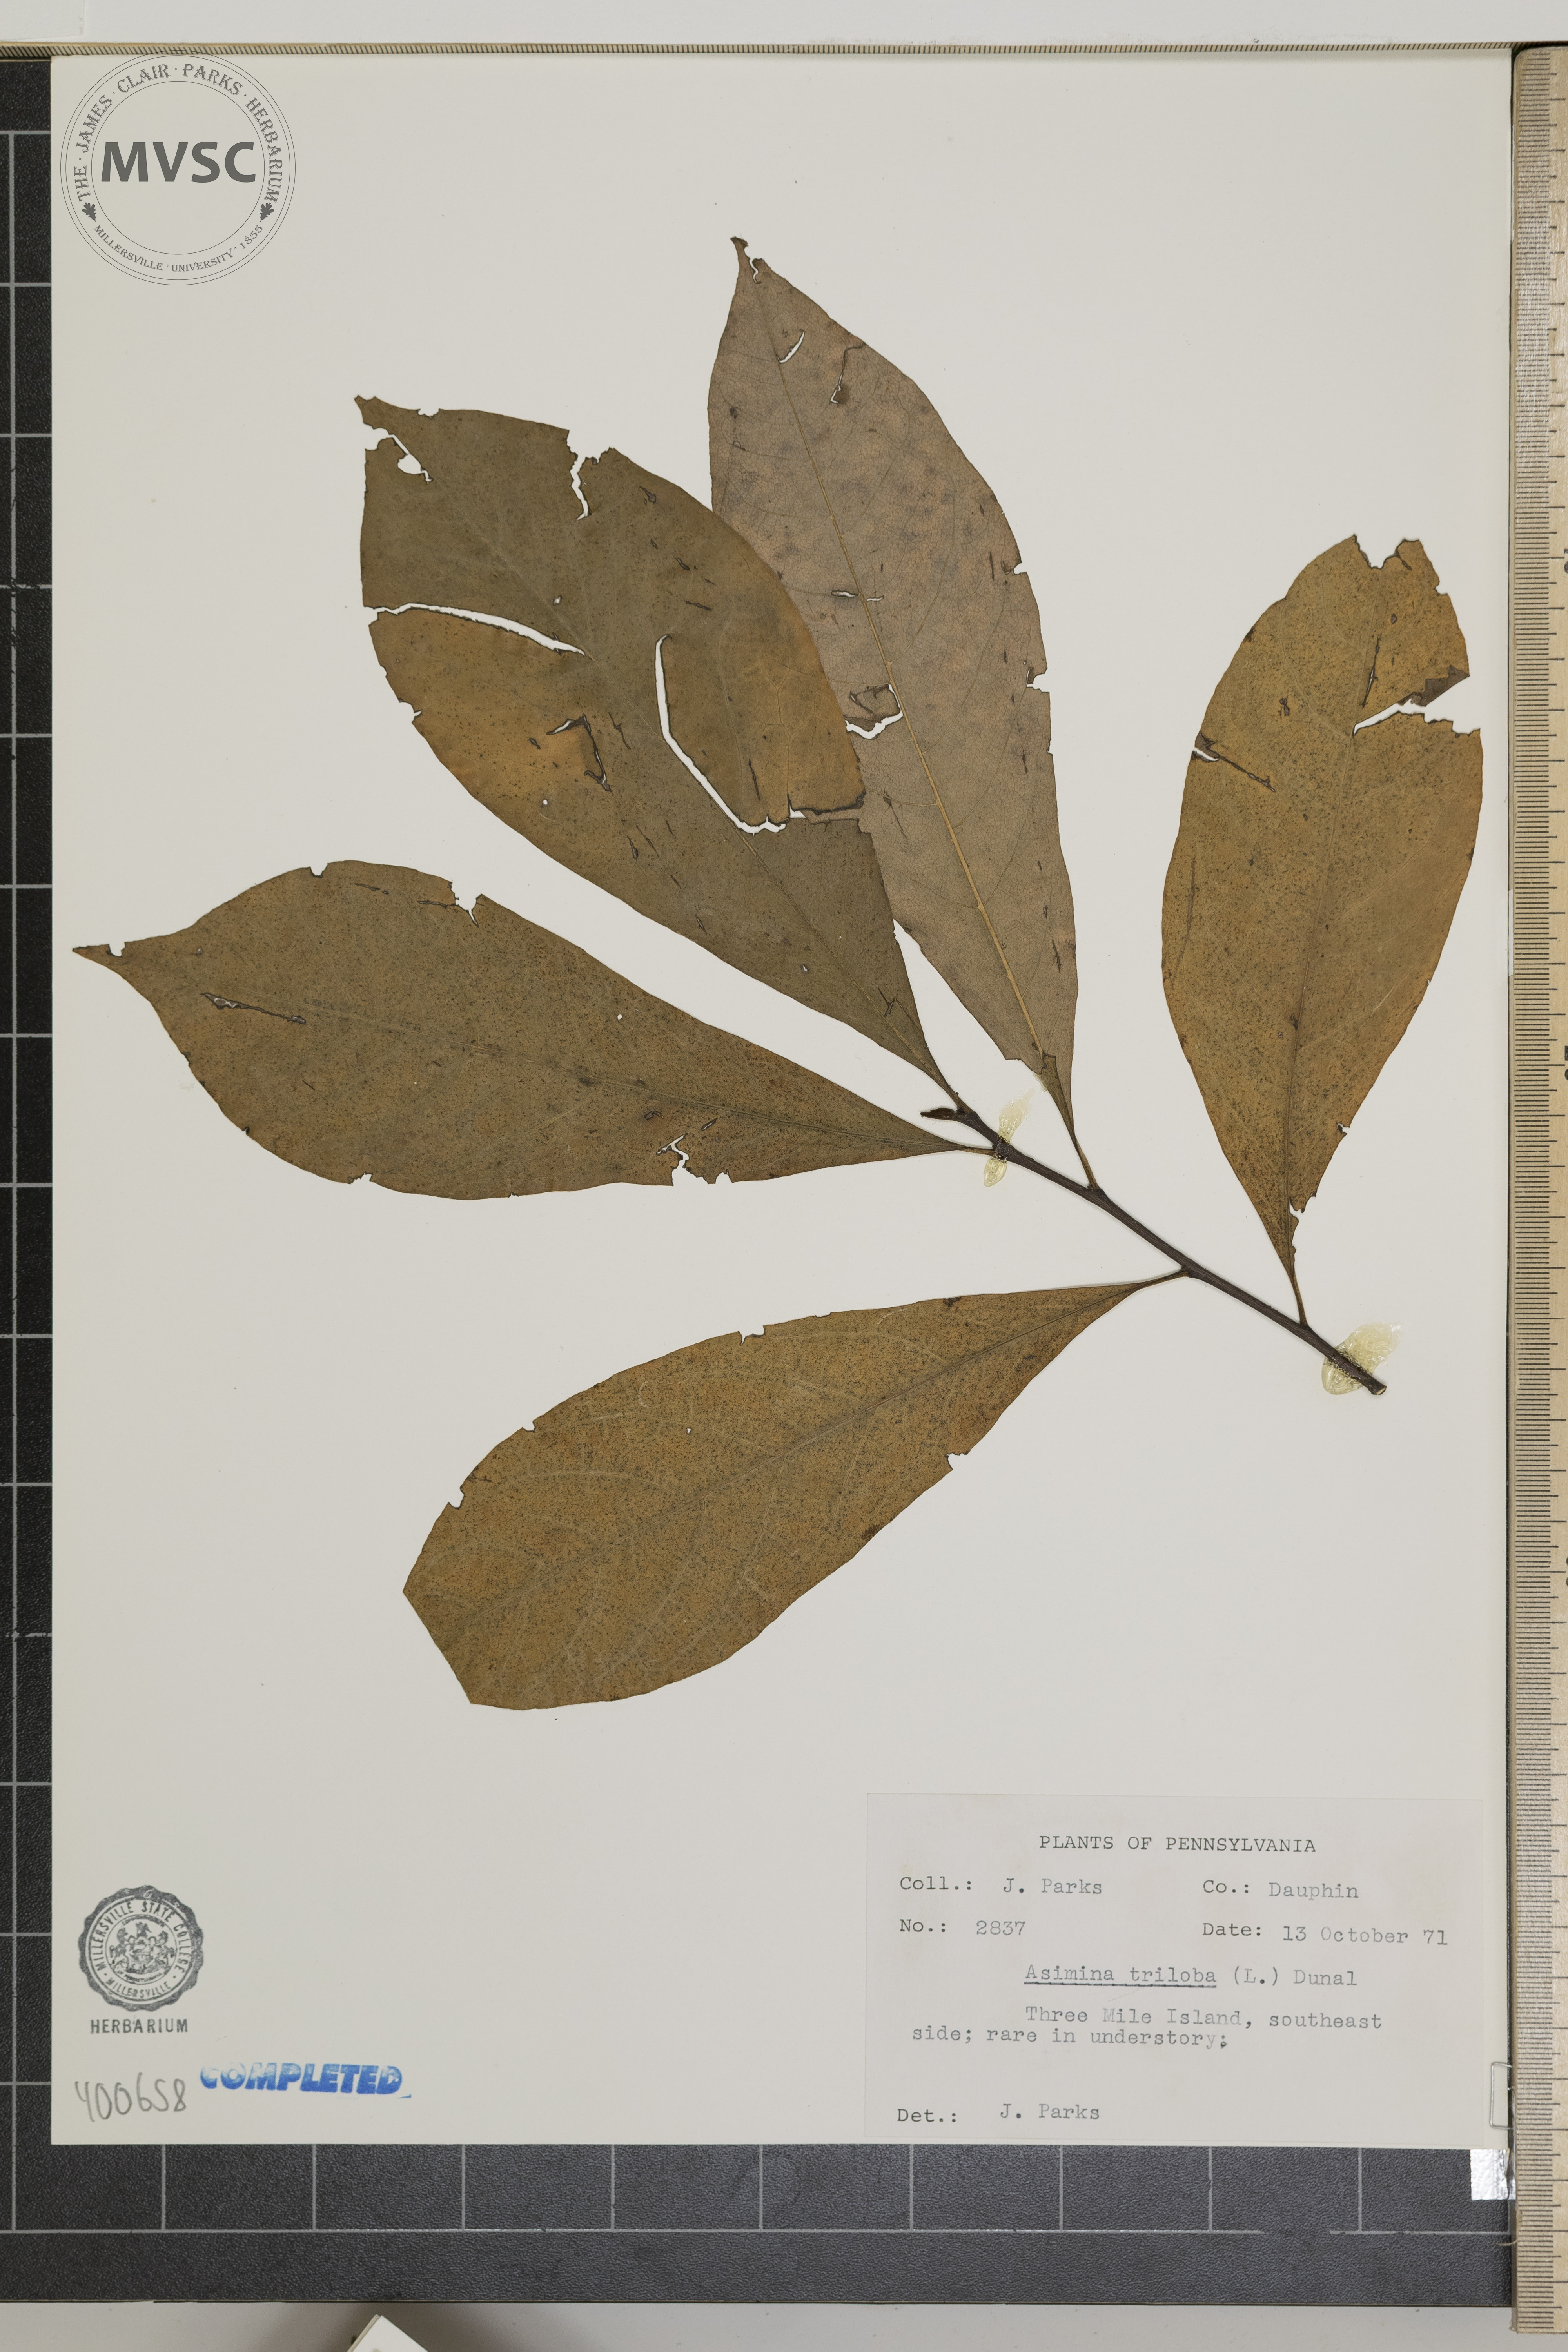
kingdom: Plantae
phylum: Tracheophyta
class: Magnoliopsida
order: Magnoliales
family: Annonaceae
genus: Asimina
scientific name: Asimina triloba
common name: pawpaw
